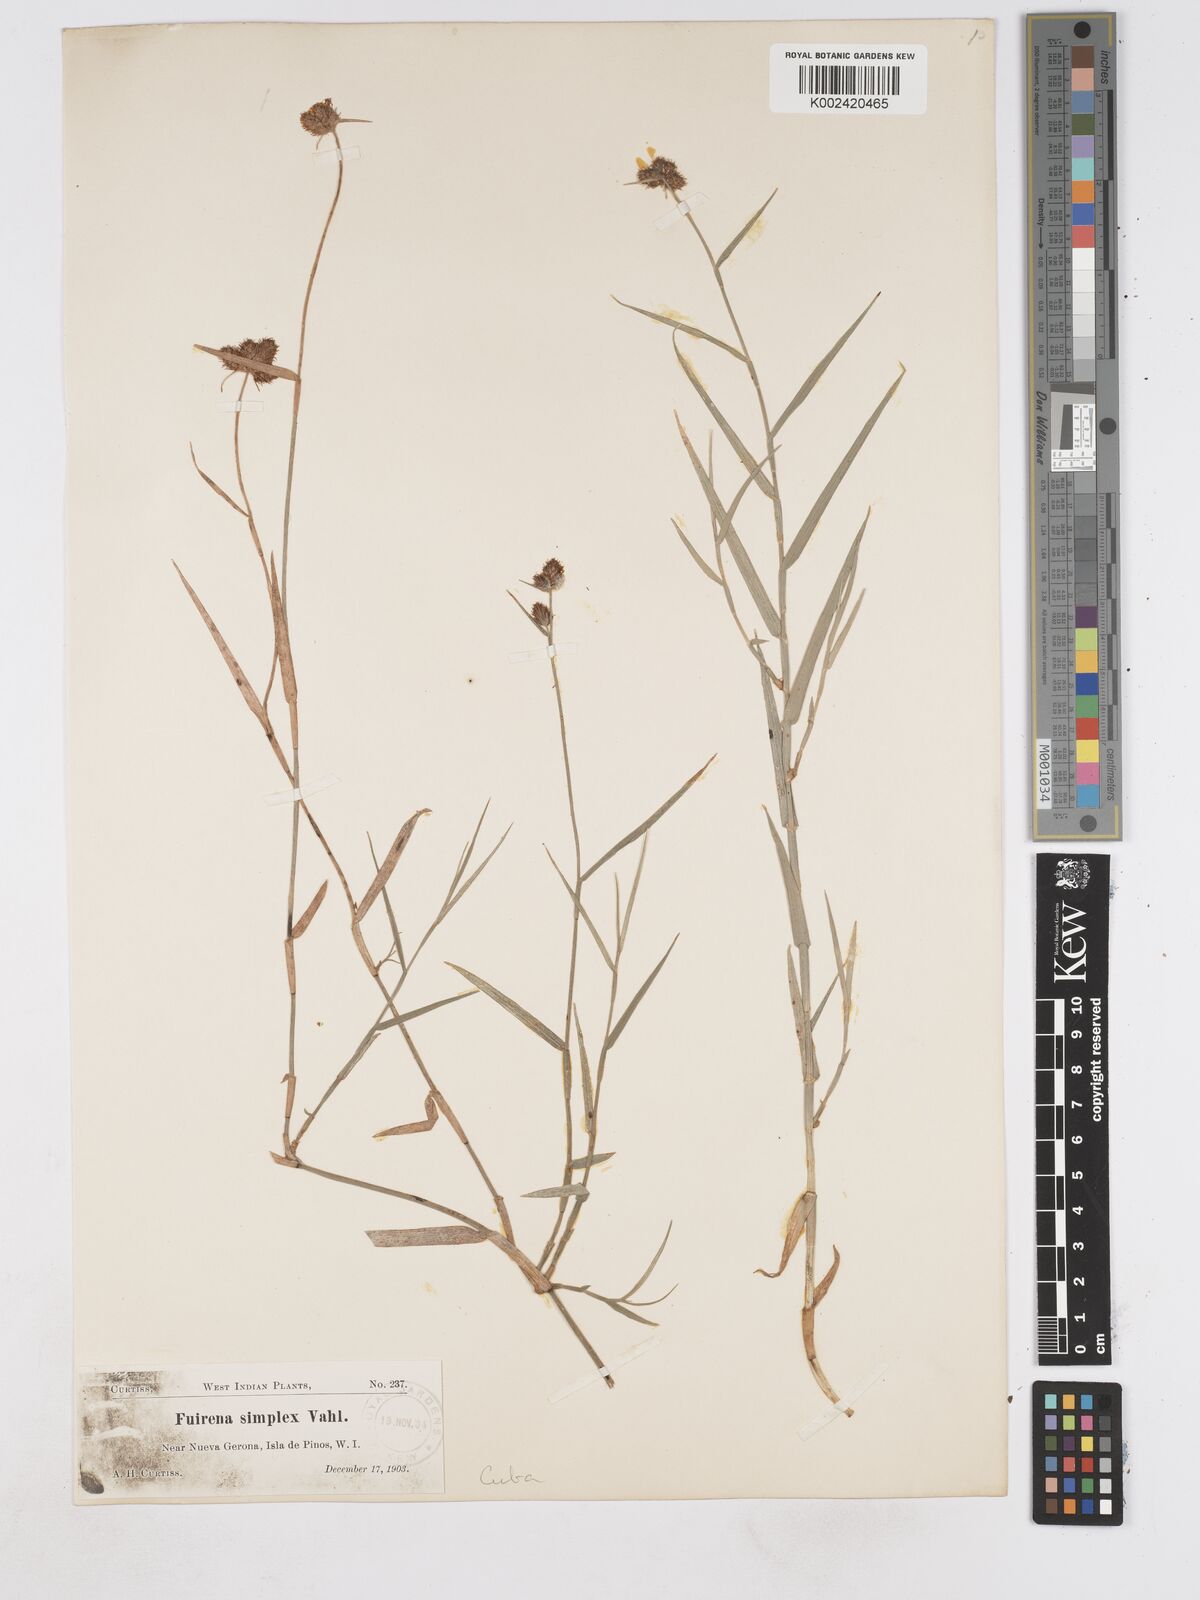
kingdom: Plantae
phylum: Tracheophyta
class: Liliopsida
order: Poales
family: Cyperaceae
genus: Fuirena
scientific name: Fuirena simplex
